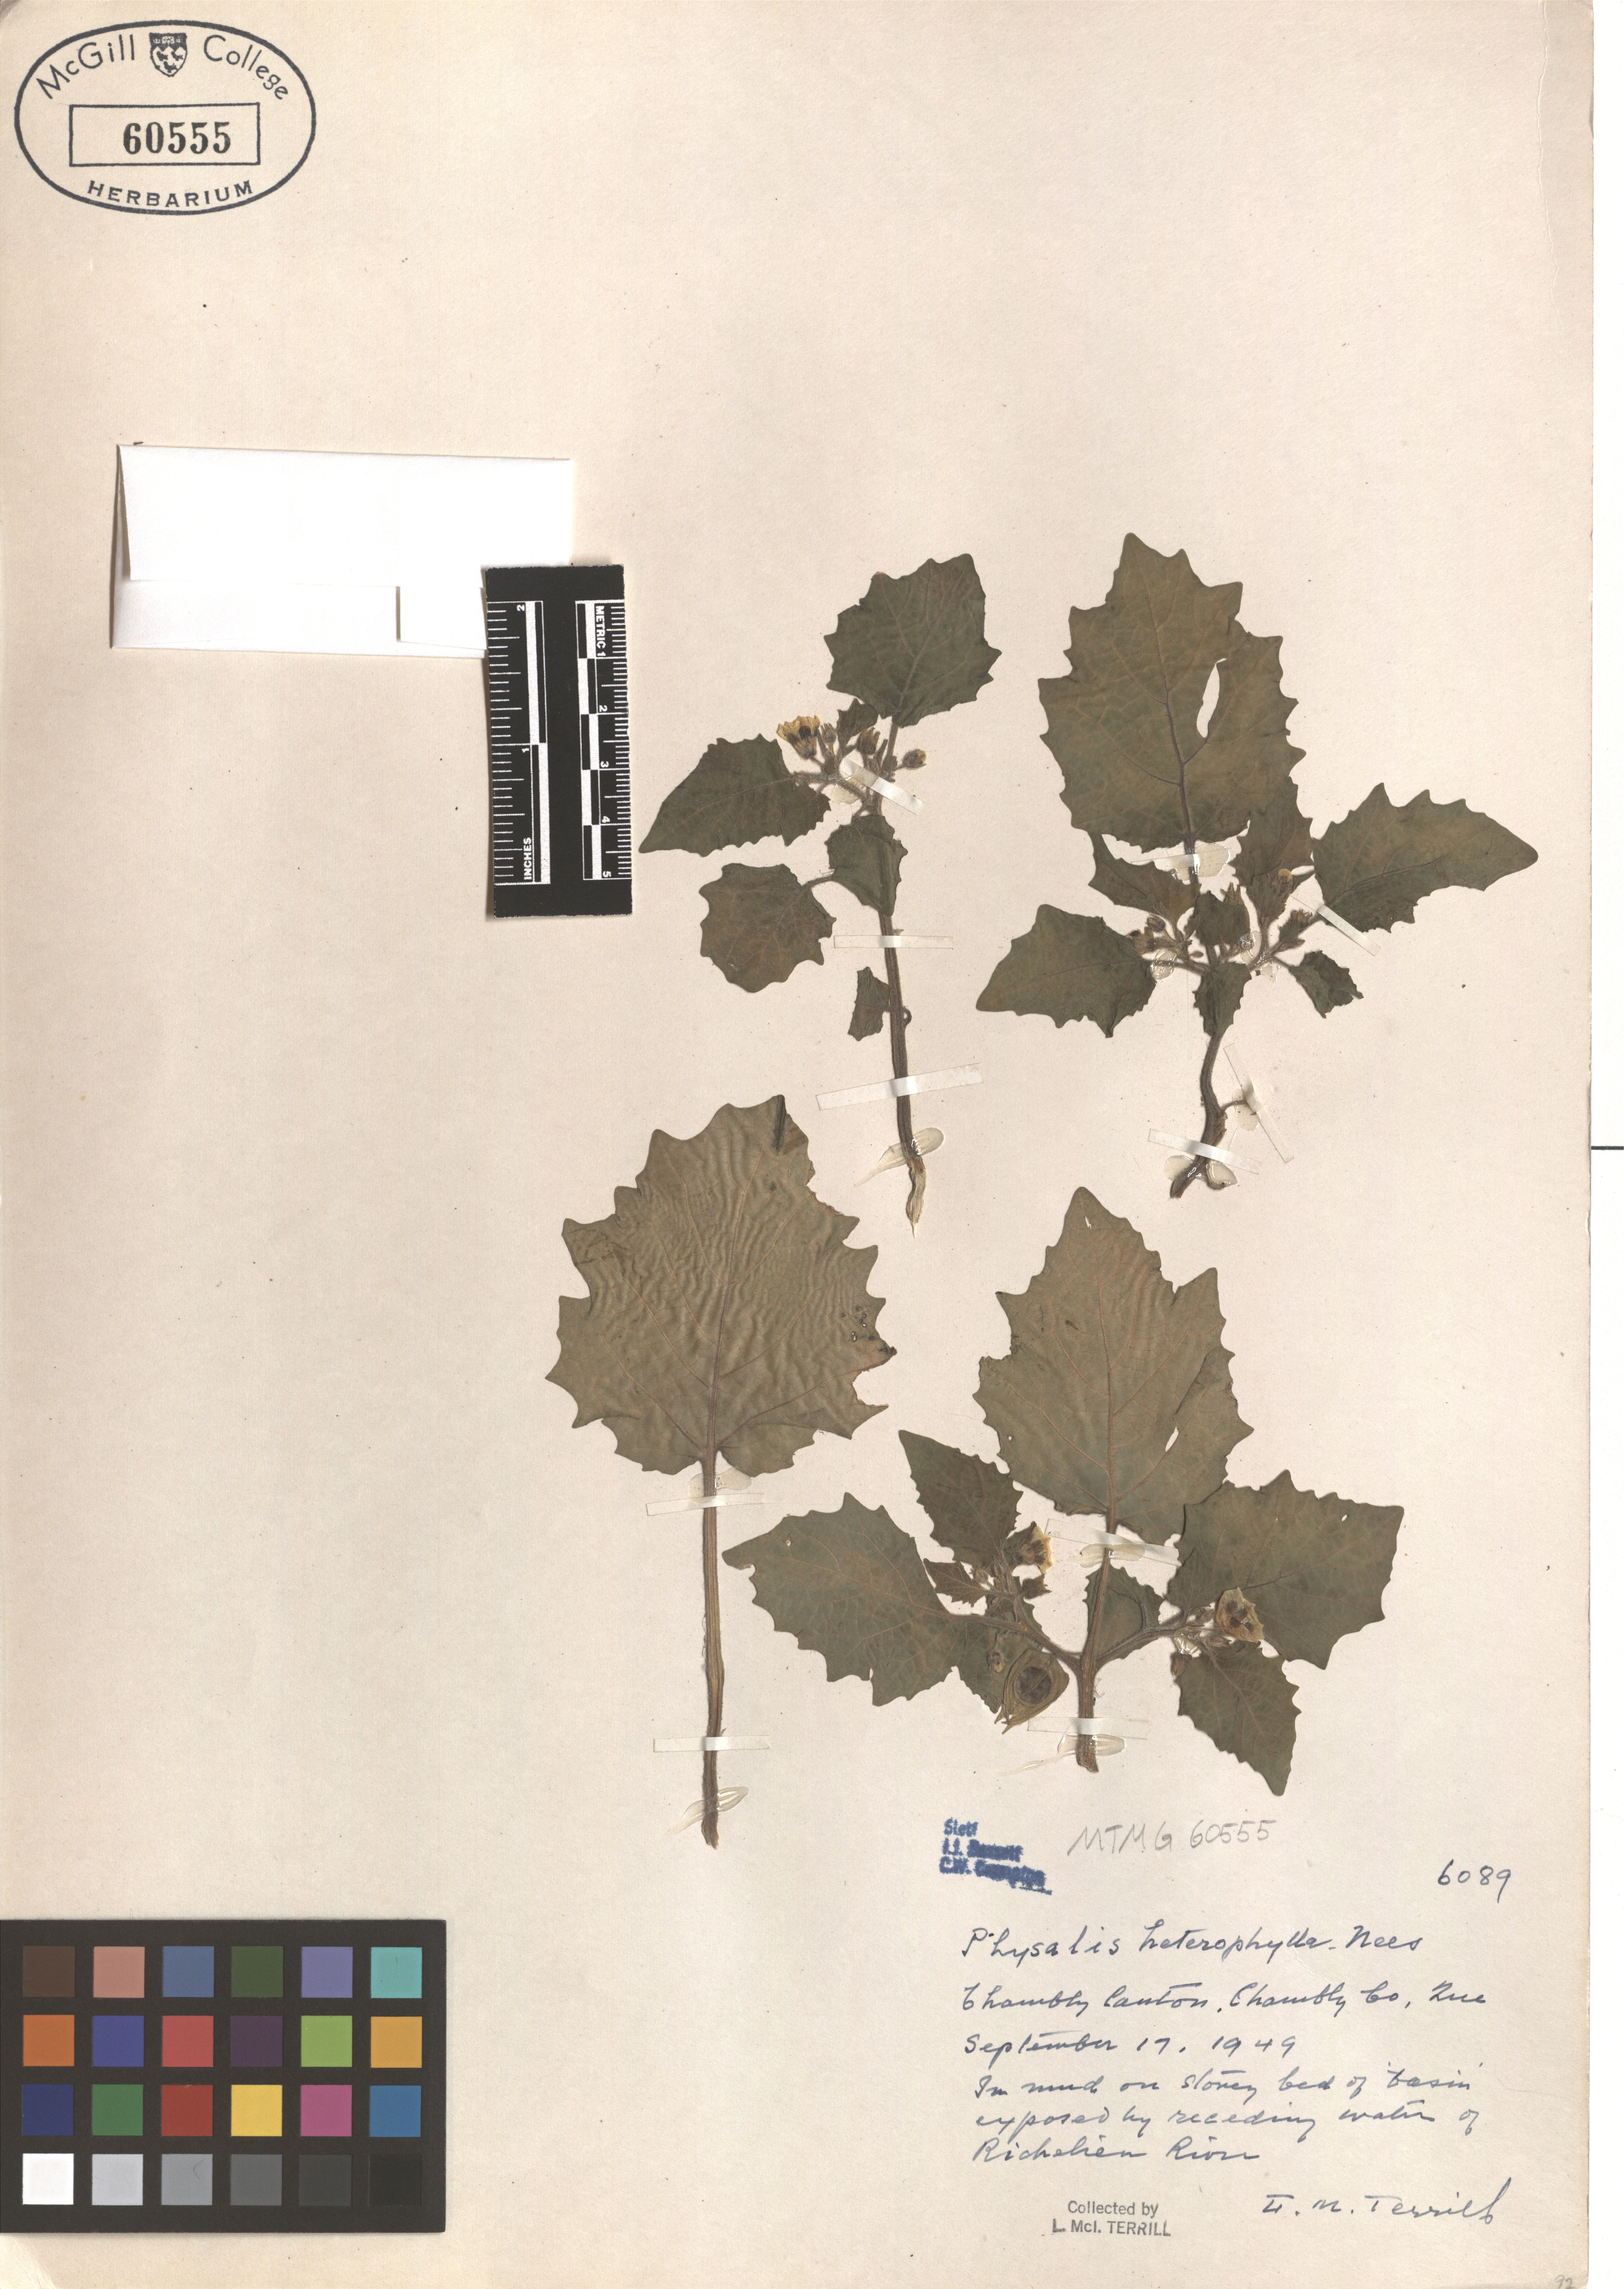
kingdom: Plantae
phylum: Tracheophyta
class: Magnoliopsida
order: Solanales
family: Solanaceae
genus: Physalis
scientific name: Physalis heterophylla
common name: Clammy ground-cherry
